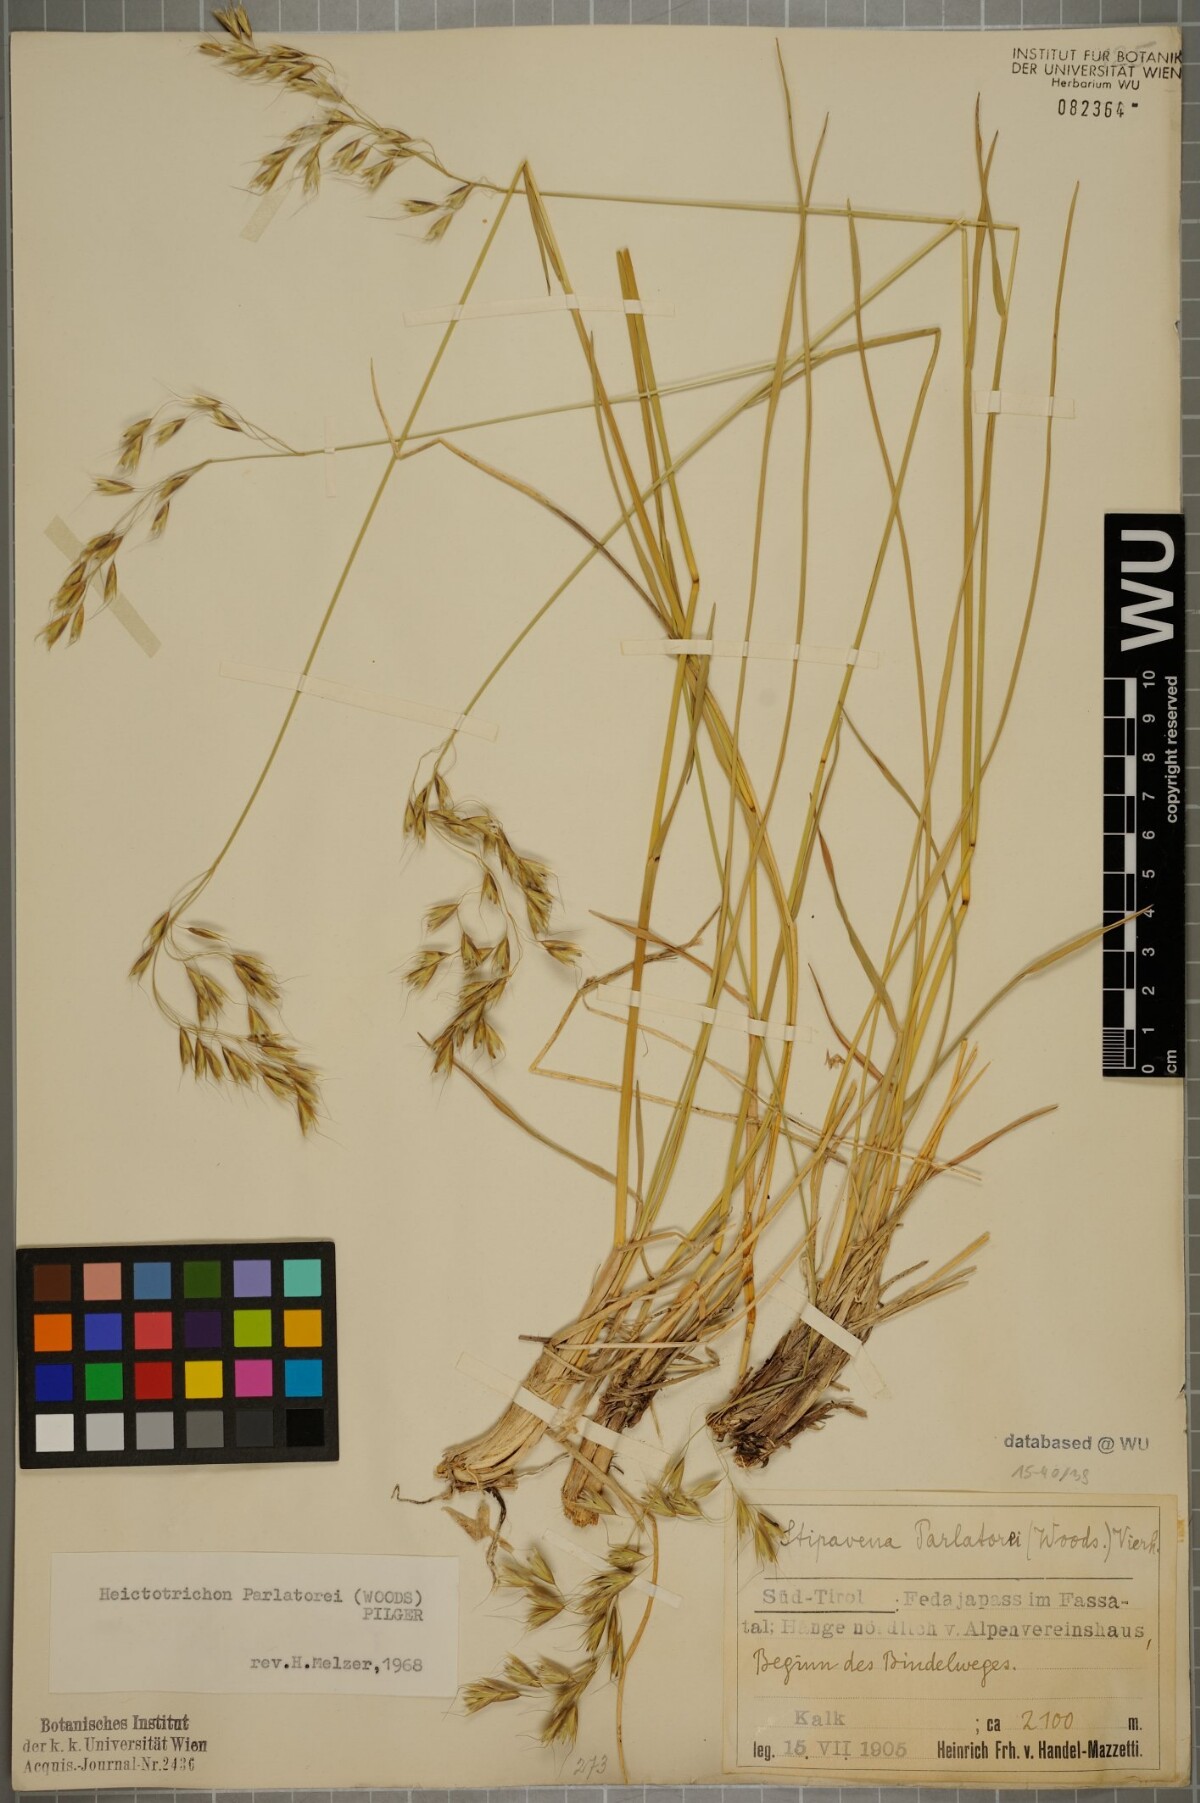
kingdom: Plantae
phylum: Tracheophyta
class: Liliopsida
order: Poales
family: Poaceae
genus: Helictotrichon
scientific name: Helictotrichon parlatorei
